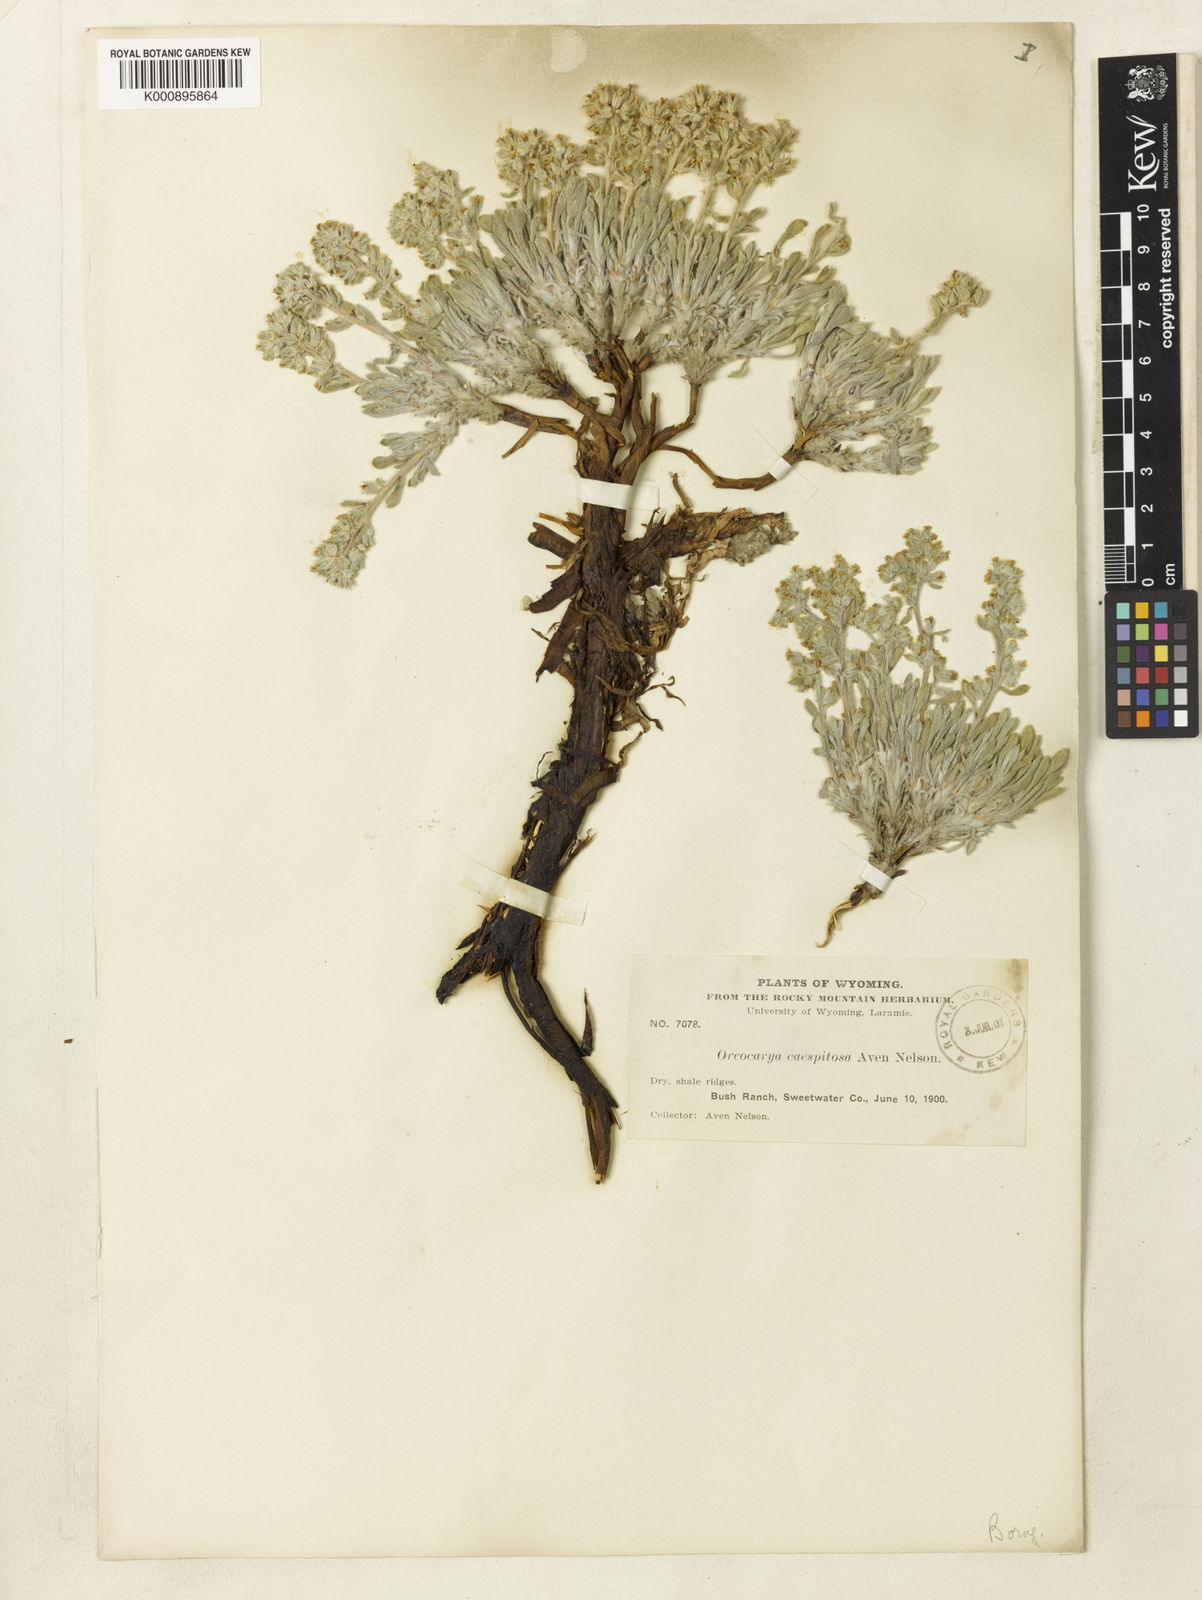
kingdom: Plantae
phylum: Tracheophyta
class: Magnoliopsida
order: Boraginales
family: Boraginaceae
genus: Oreocarya
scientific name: Oreocarya caespitosa
